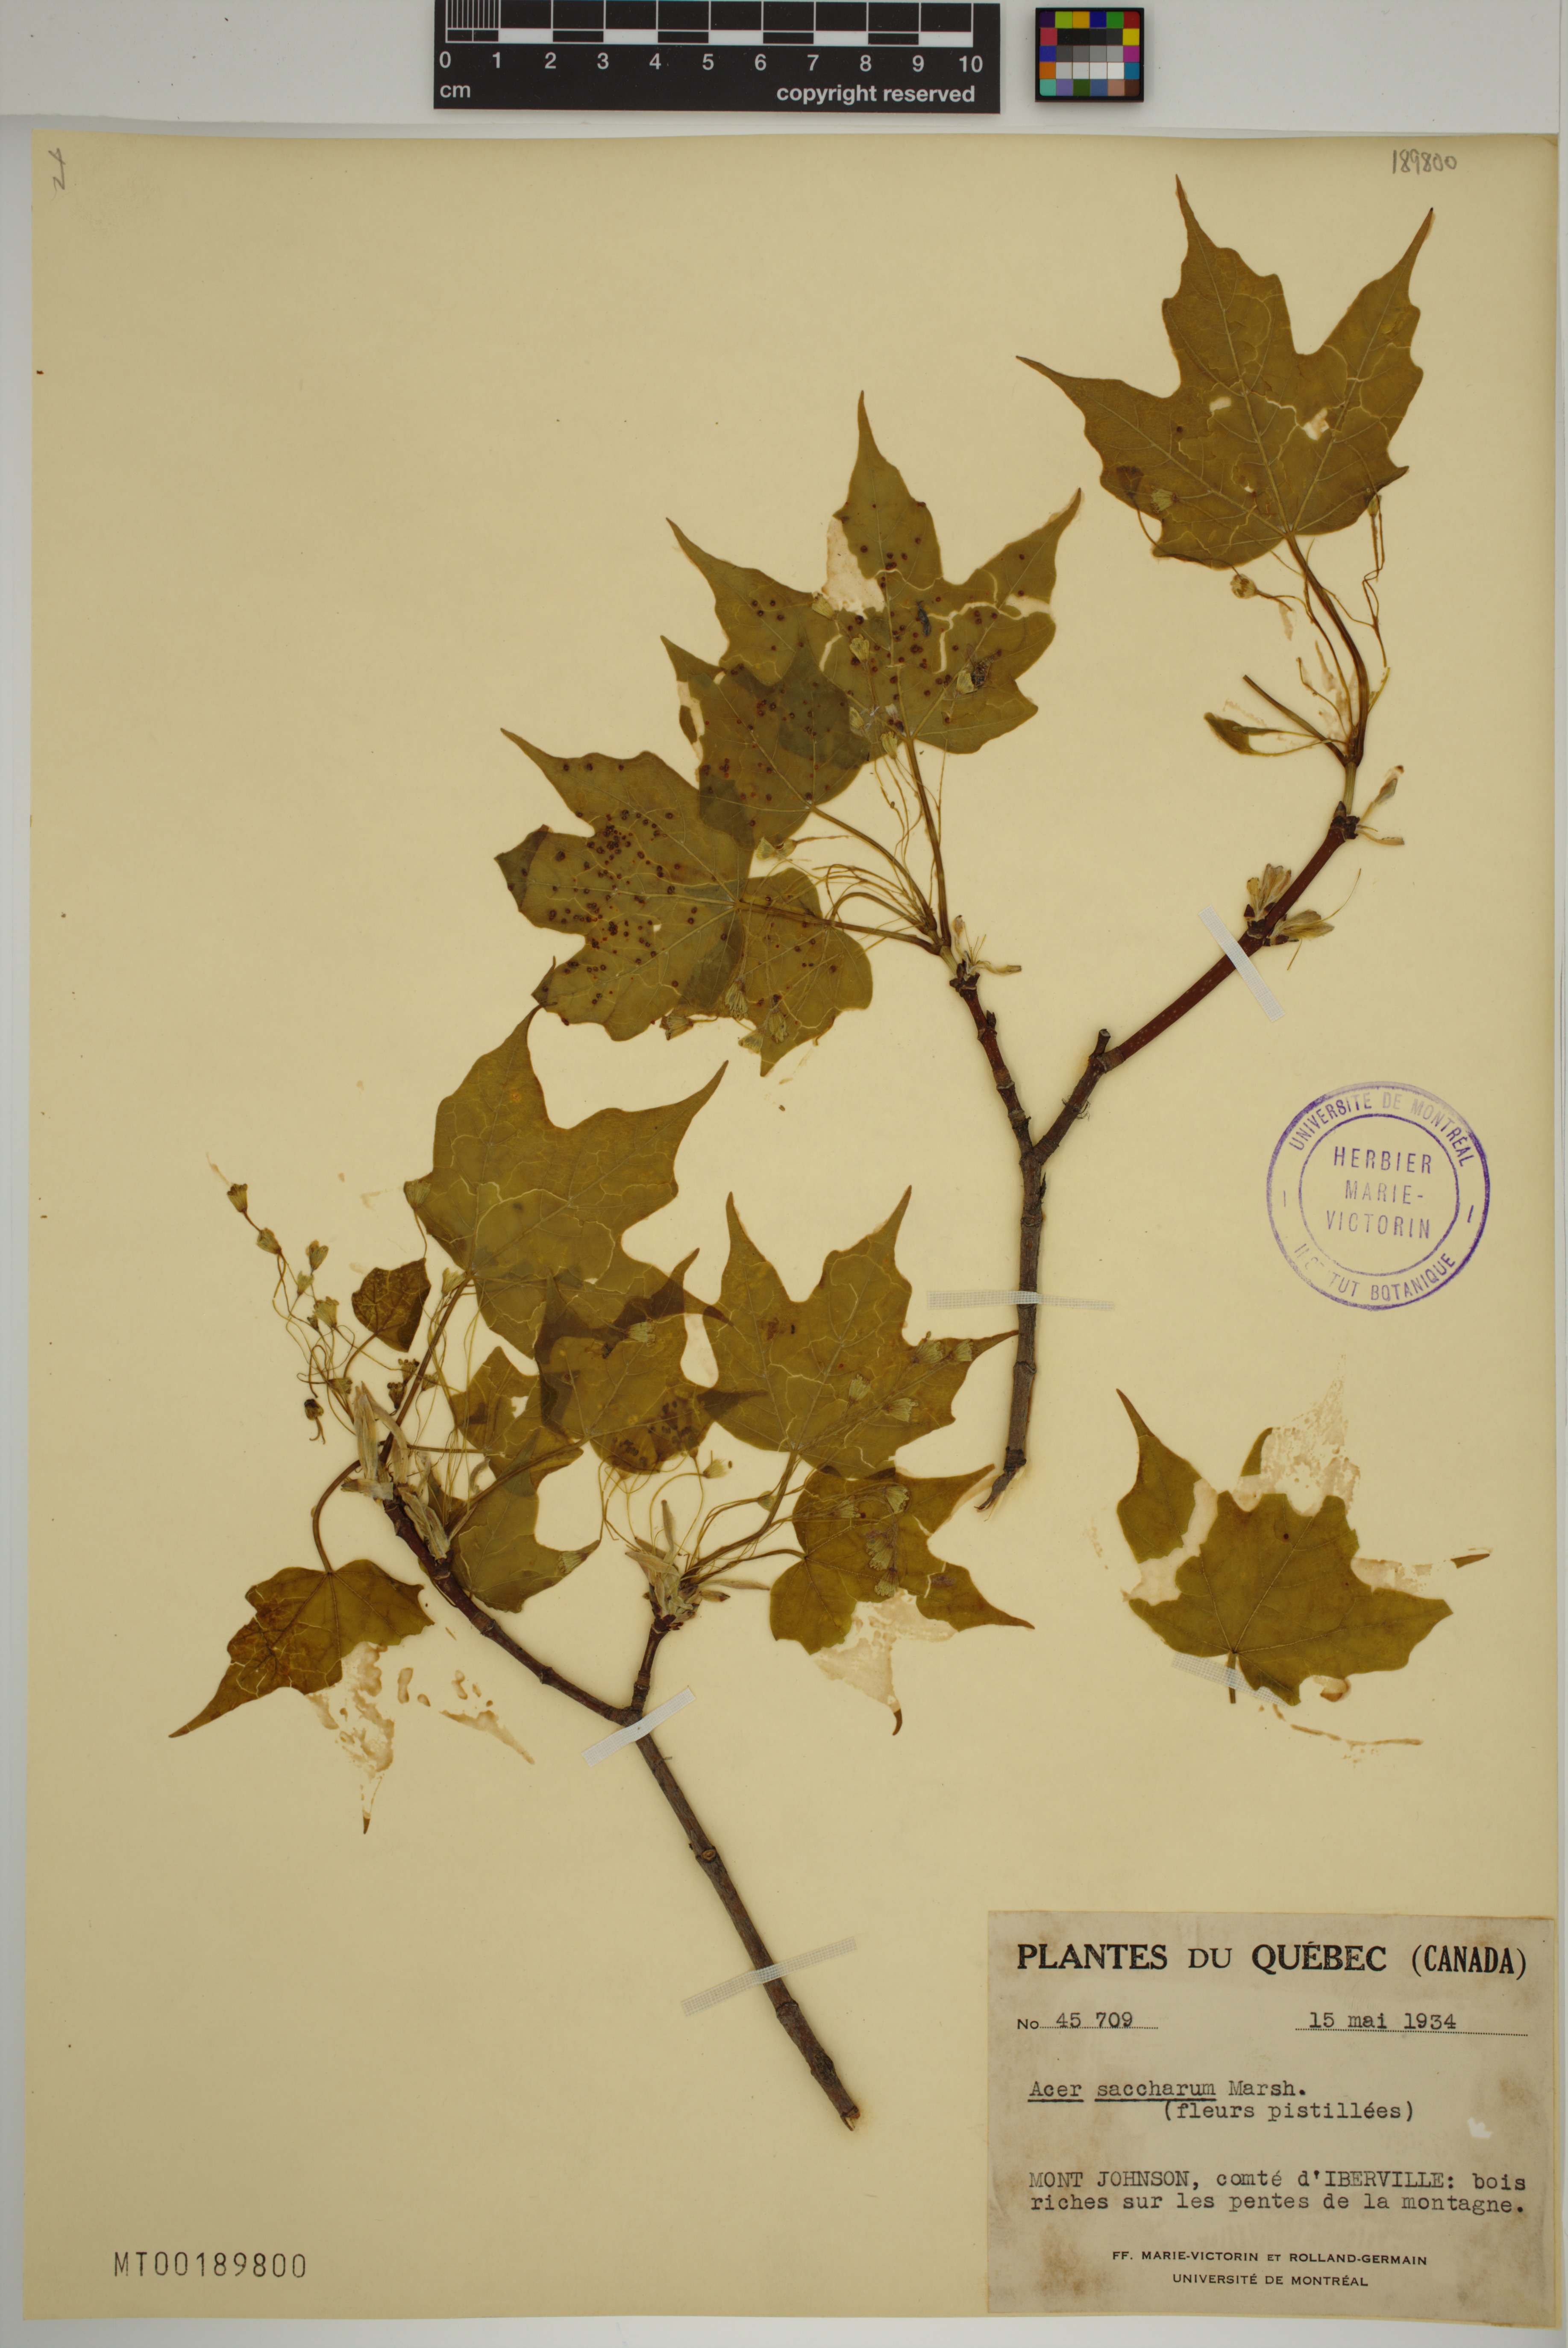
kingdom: Plantae
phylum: Tracheophyta
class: Magnoliopsida
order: Sapindales
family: Sapindaceae
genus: Acer
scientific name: Acer saccharum
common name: Sugar maple
